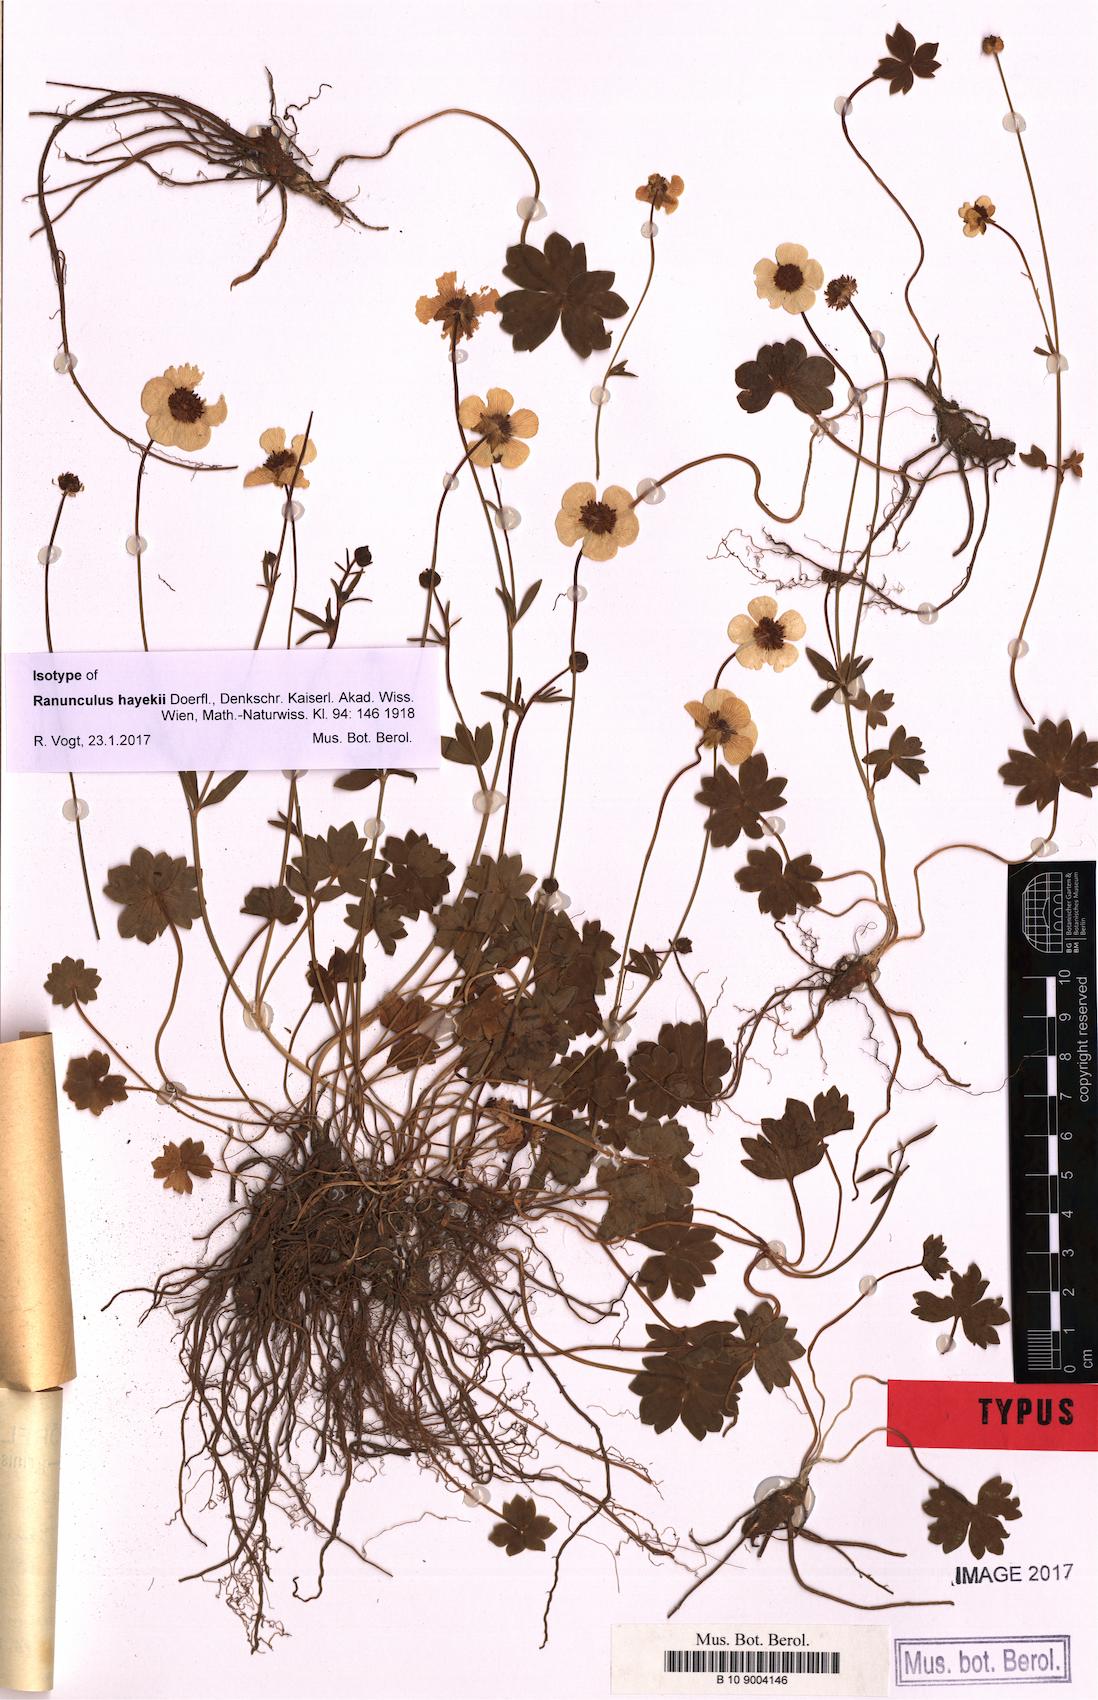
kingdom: Plantae
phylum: Tracheophyta
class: Magnoliopsida
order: Ranunculales
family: Ranunculaceae
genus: Ranunculus
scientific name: Ranunculus hayekii
